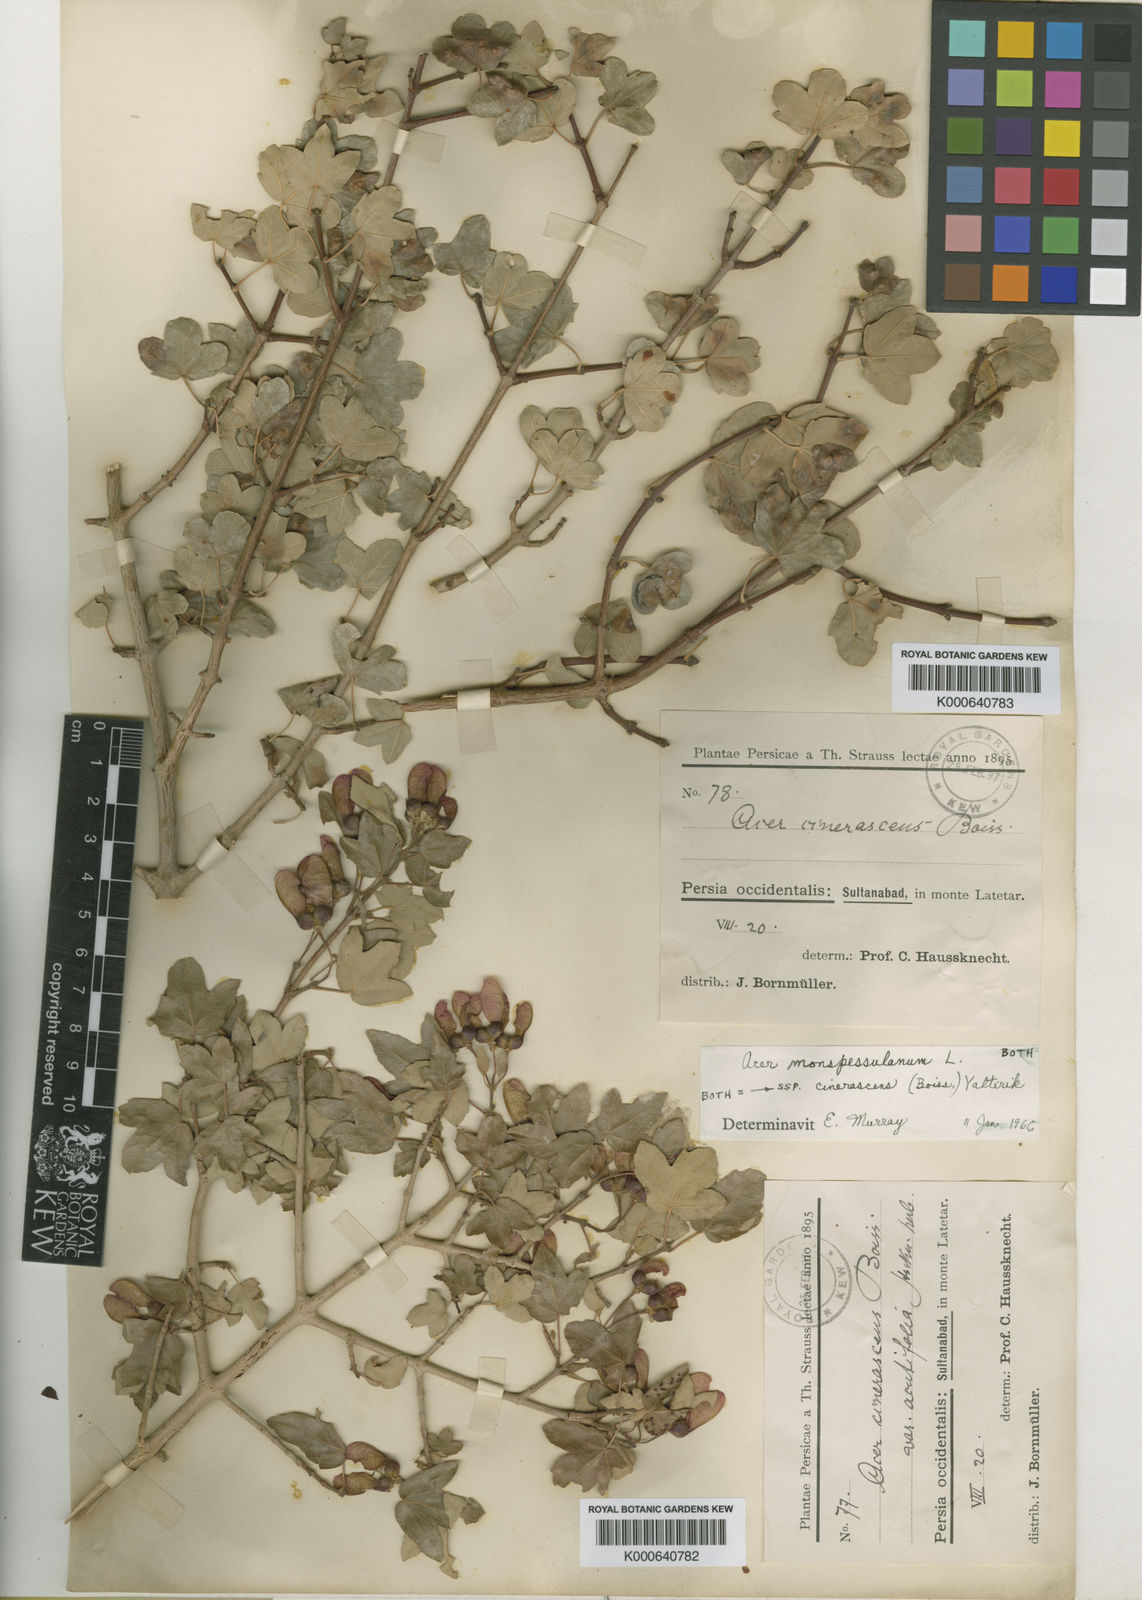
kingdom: Plantae
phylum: Tracheophyta
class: Magnoliopsida
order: Sapindales
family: Sapindaceae
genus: Acer
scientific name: Acer monspessulanum
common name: Montpellier maple
